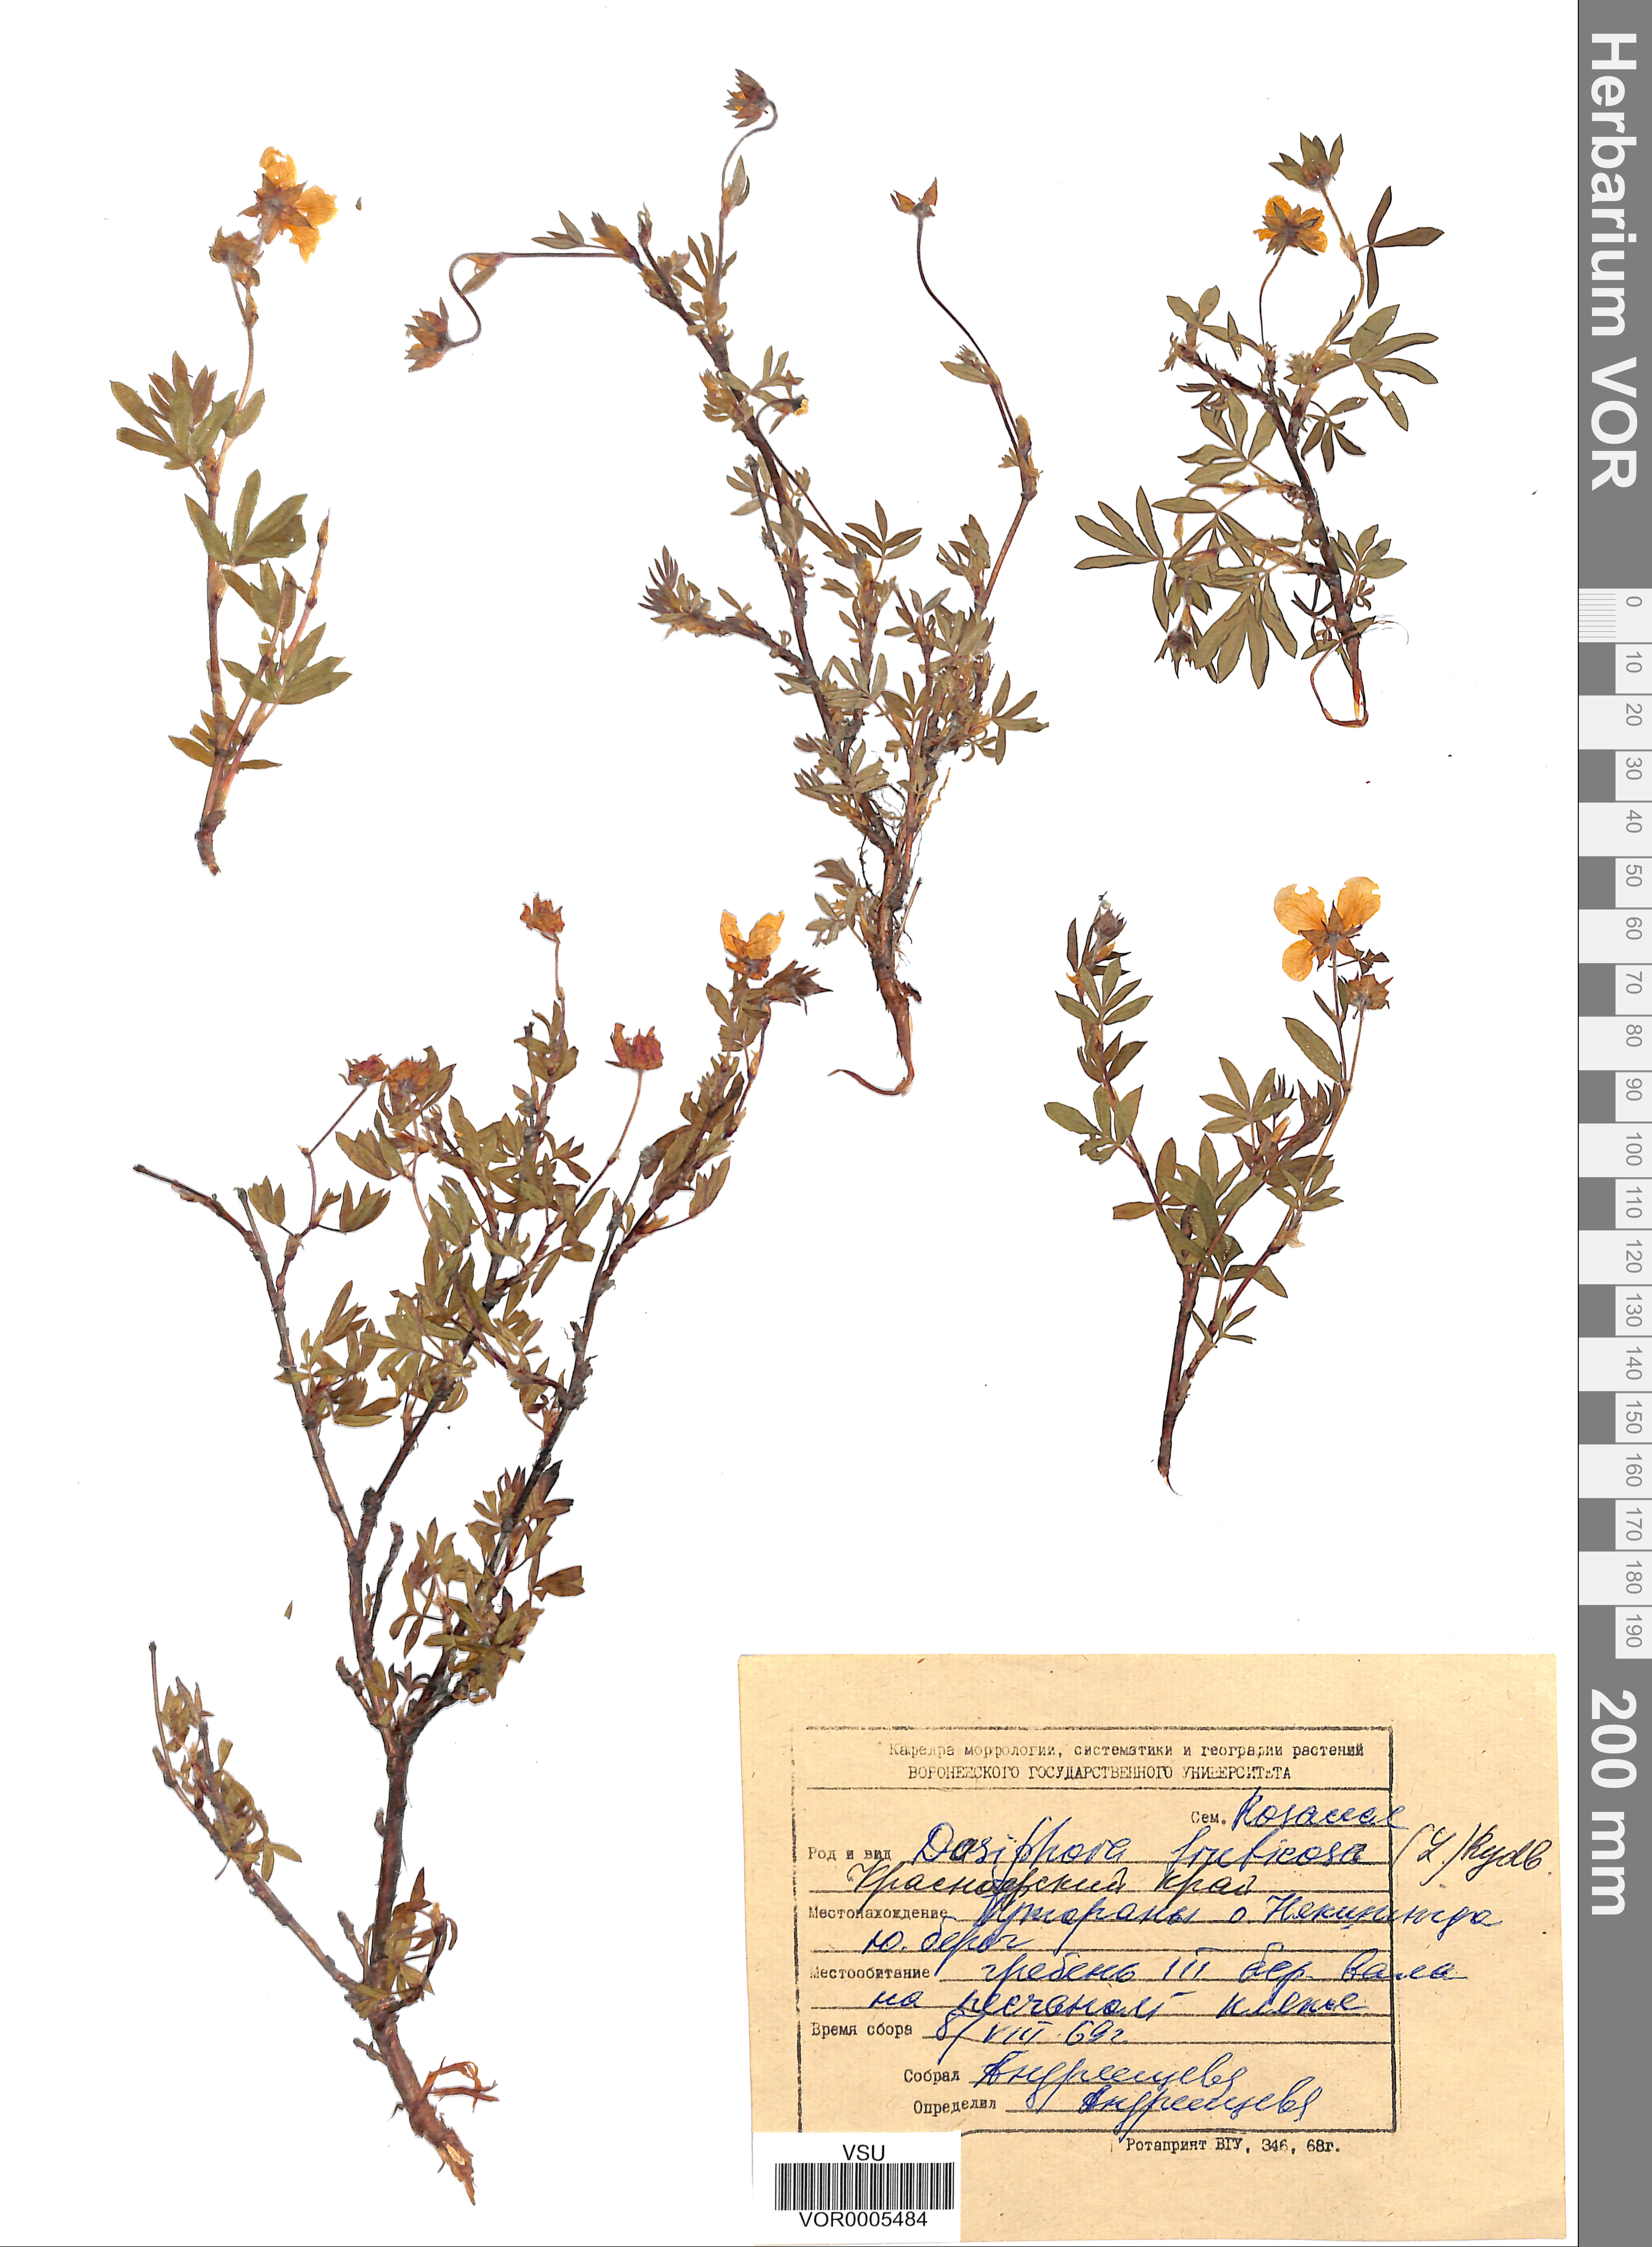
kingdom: Plantae
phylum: Tracheophyta
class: Magnoliopsida
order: Rosales
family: Rosaceae
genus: Dasiphora
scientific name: Dasiphora fruticosa
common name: Shrubby cinquefoil
